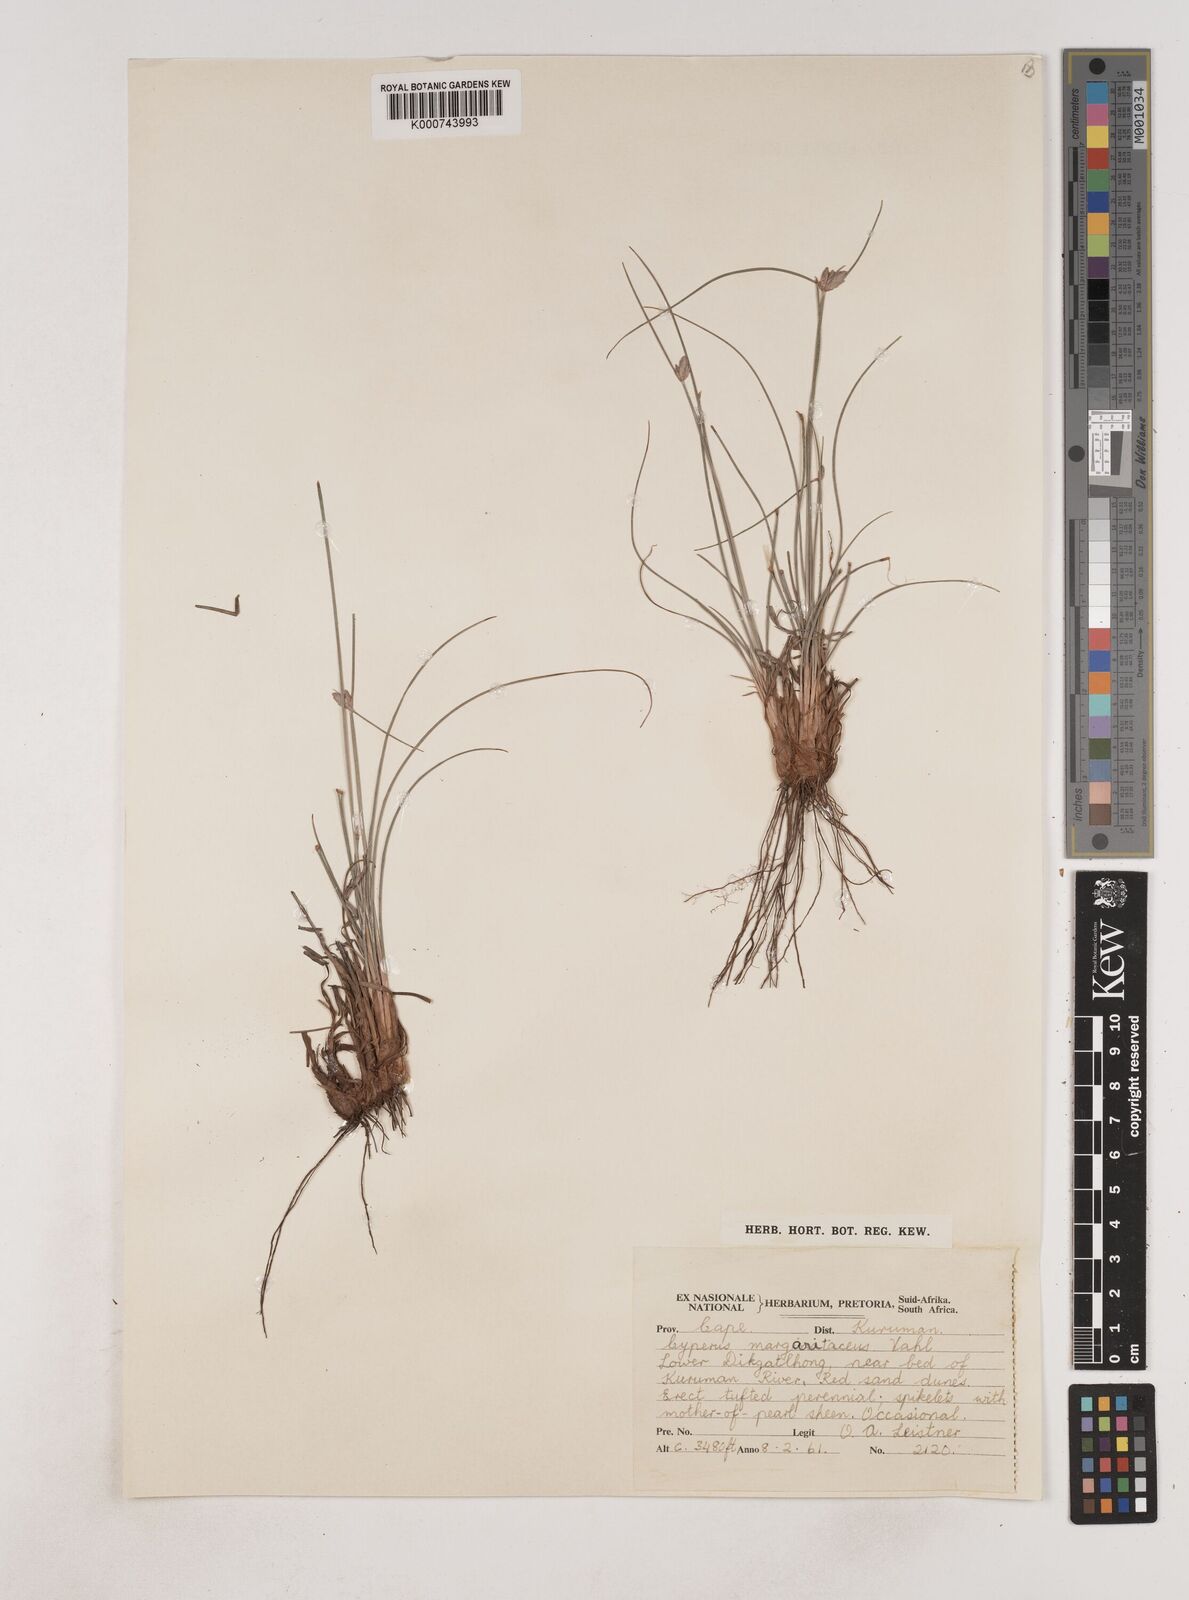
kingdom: Plantae
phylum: Tracheophyta
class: Liliopsida
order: Poales
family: Cyperaceae
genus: Cyperus
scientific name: Cyperus margaritaceus
